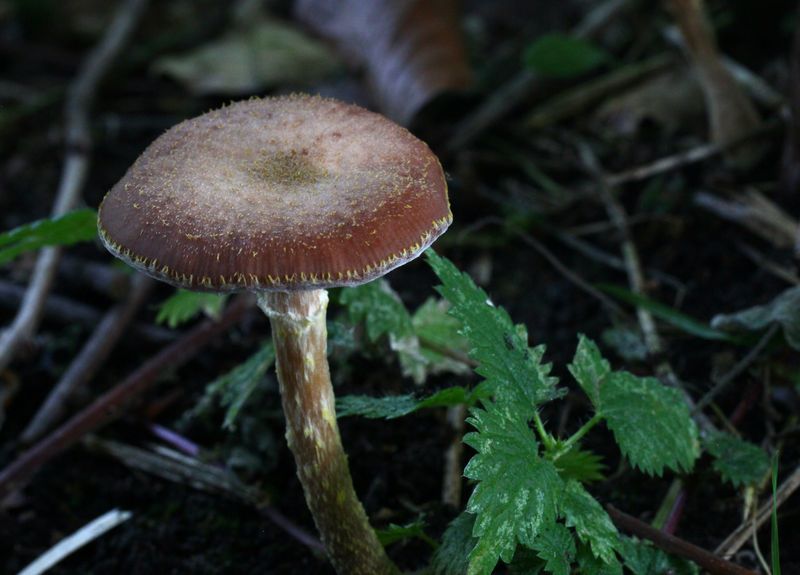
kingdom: Fungi
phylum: Basidiomycota
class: Agaricomycetes
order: Agaricales
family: Physalacriaceae
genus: Armillaria
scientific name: Armillaria lutea
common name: køllestokket honningsvamp
